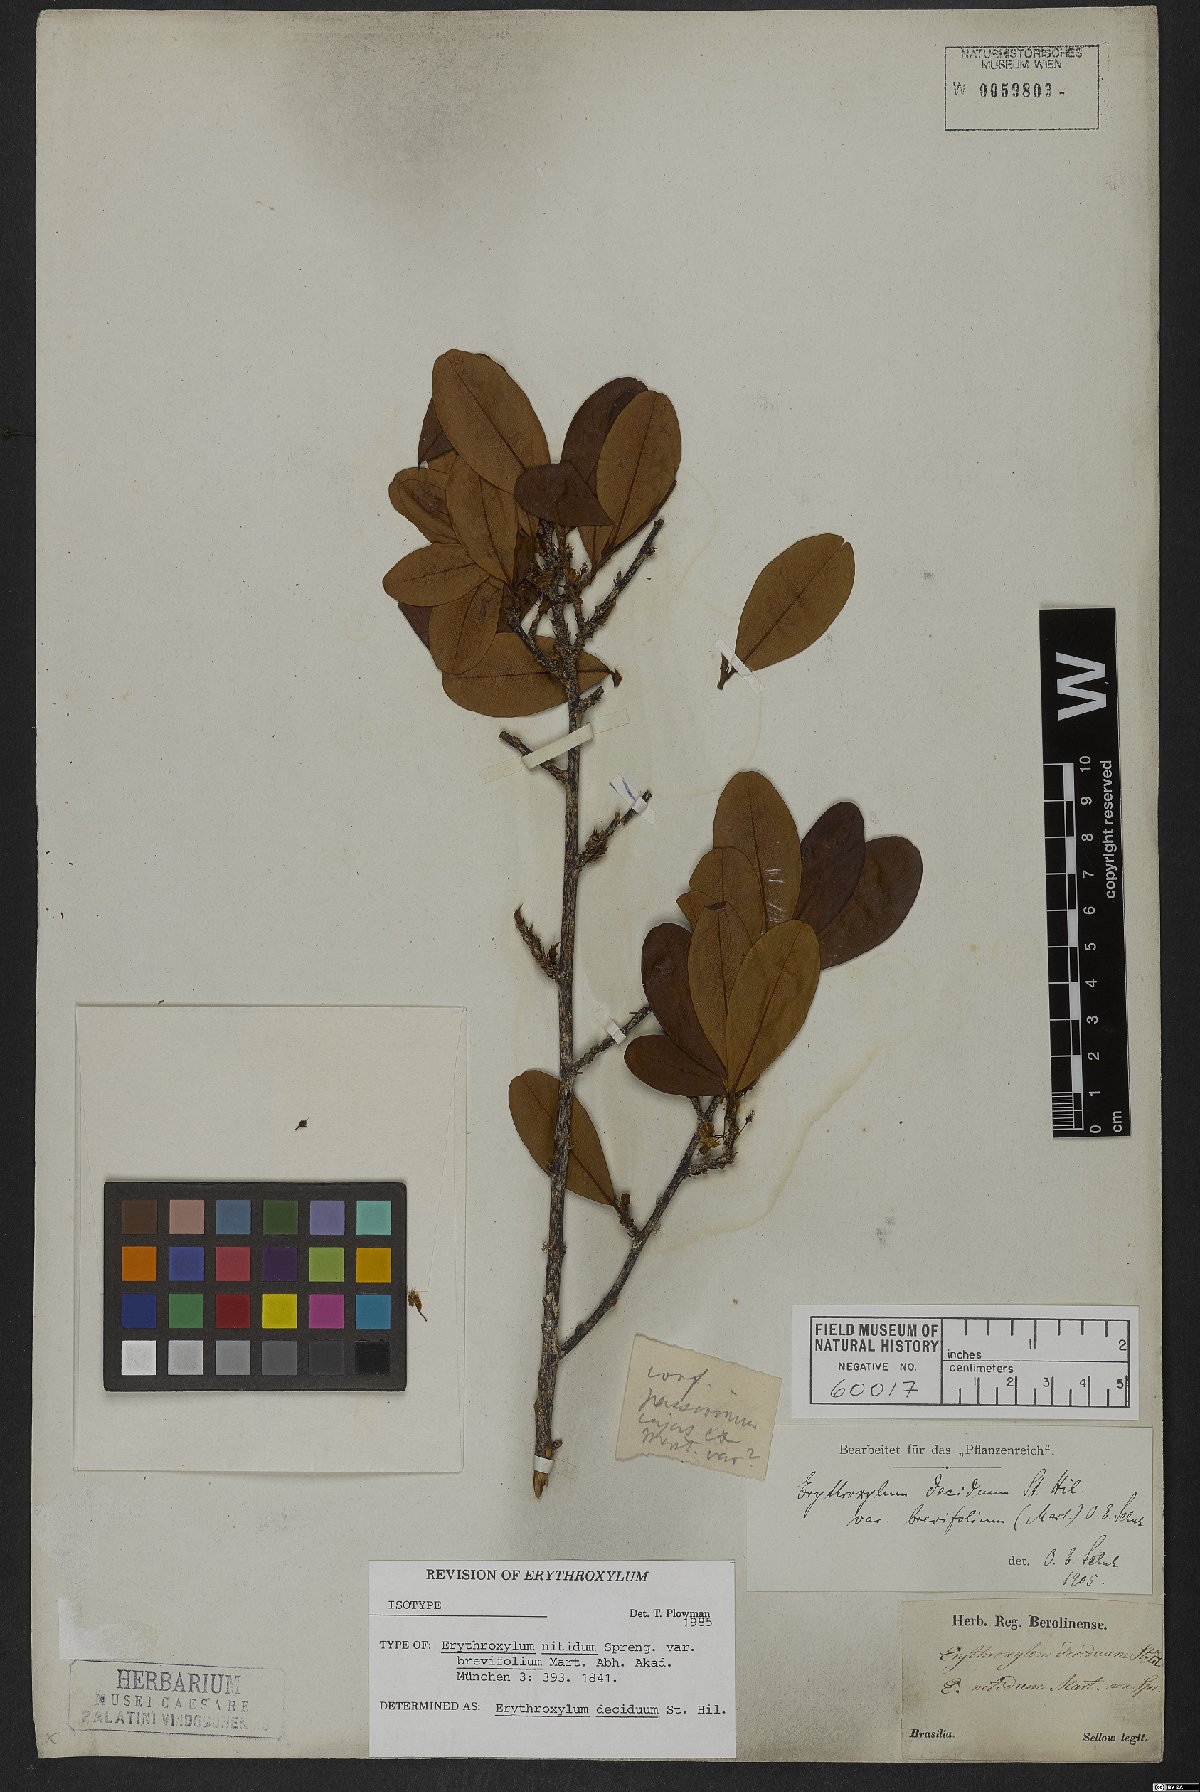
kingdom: Plantae
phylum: Tracheophyta
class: Magnoliopsida
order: Malpighiales
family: Erythroxylaceae
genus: Erythroxylum
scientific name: Erythroxylum deciduum
